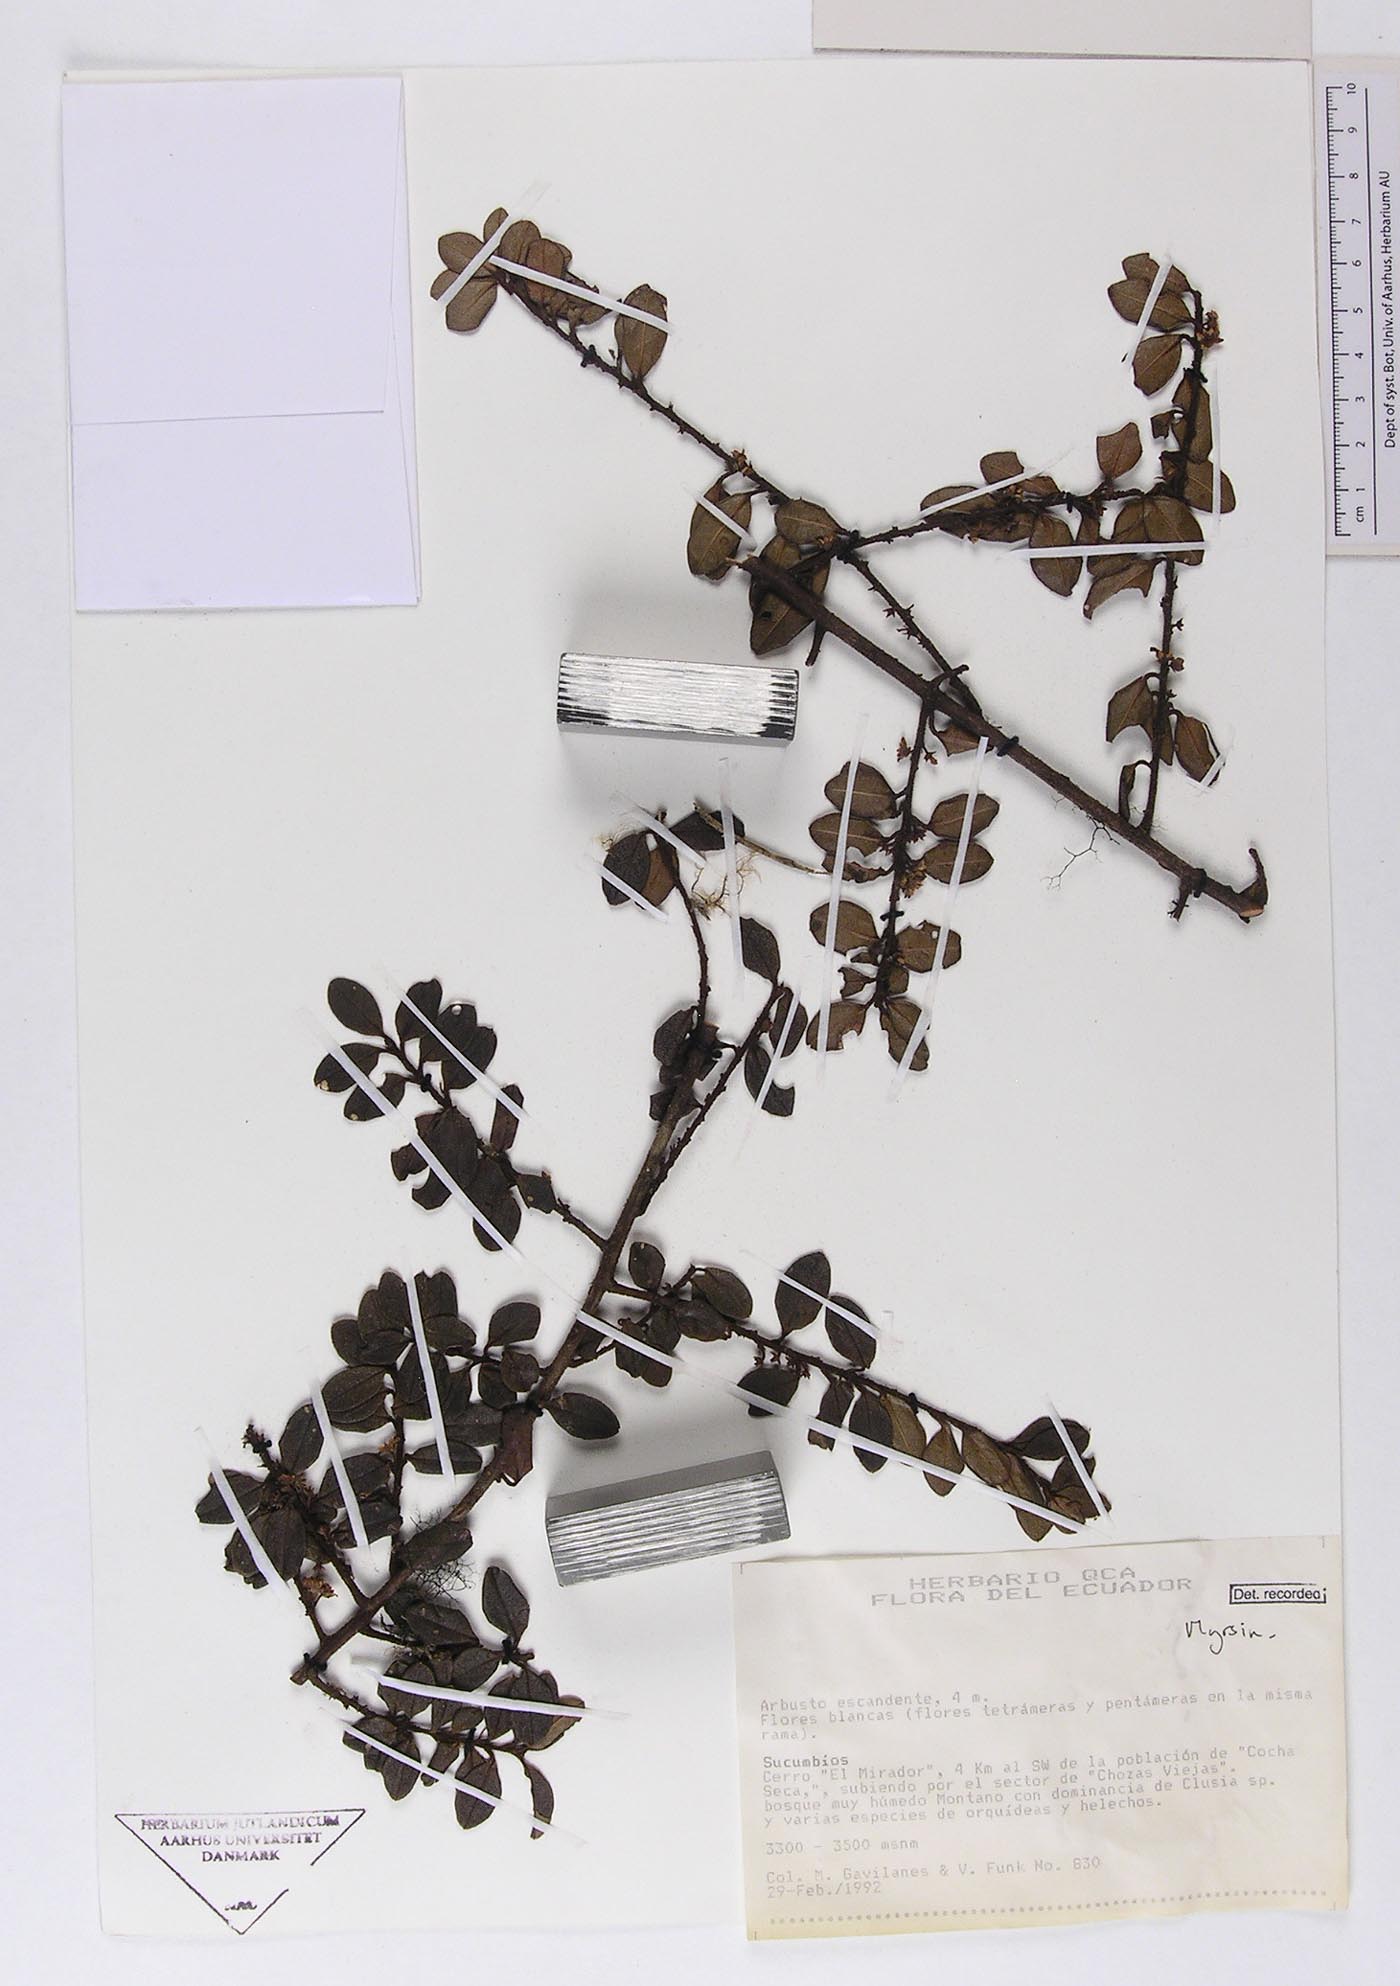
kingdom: Plantae
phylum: Tracheophyta
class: Magnoliopsida
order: Ericales
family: Primulaceae
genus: Myrsine
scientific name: Myrsine dependens
